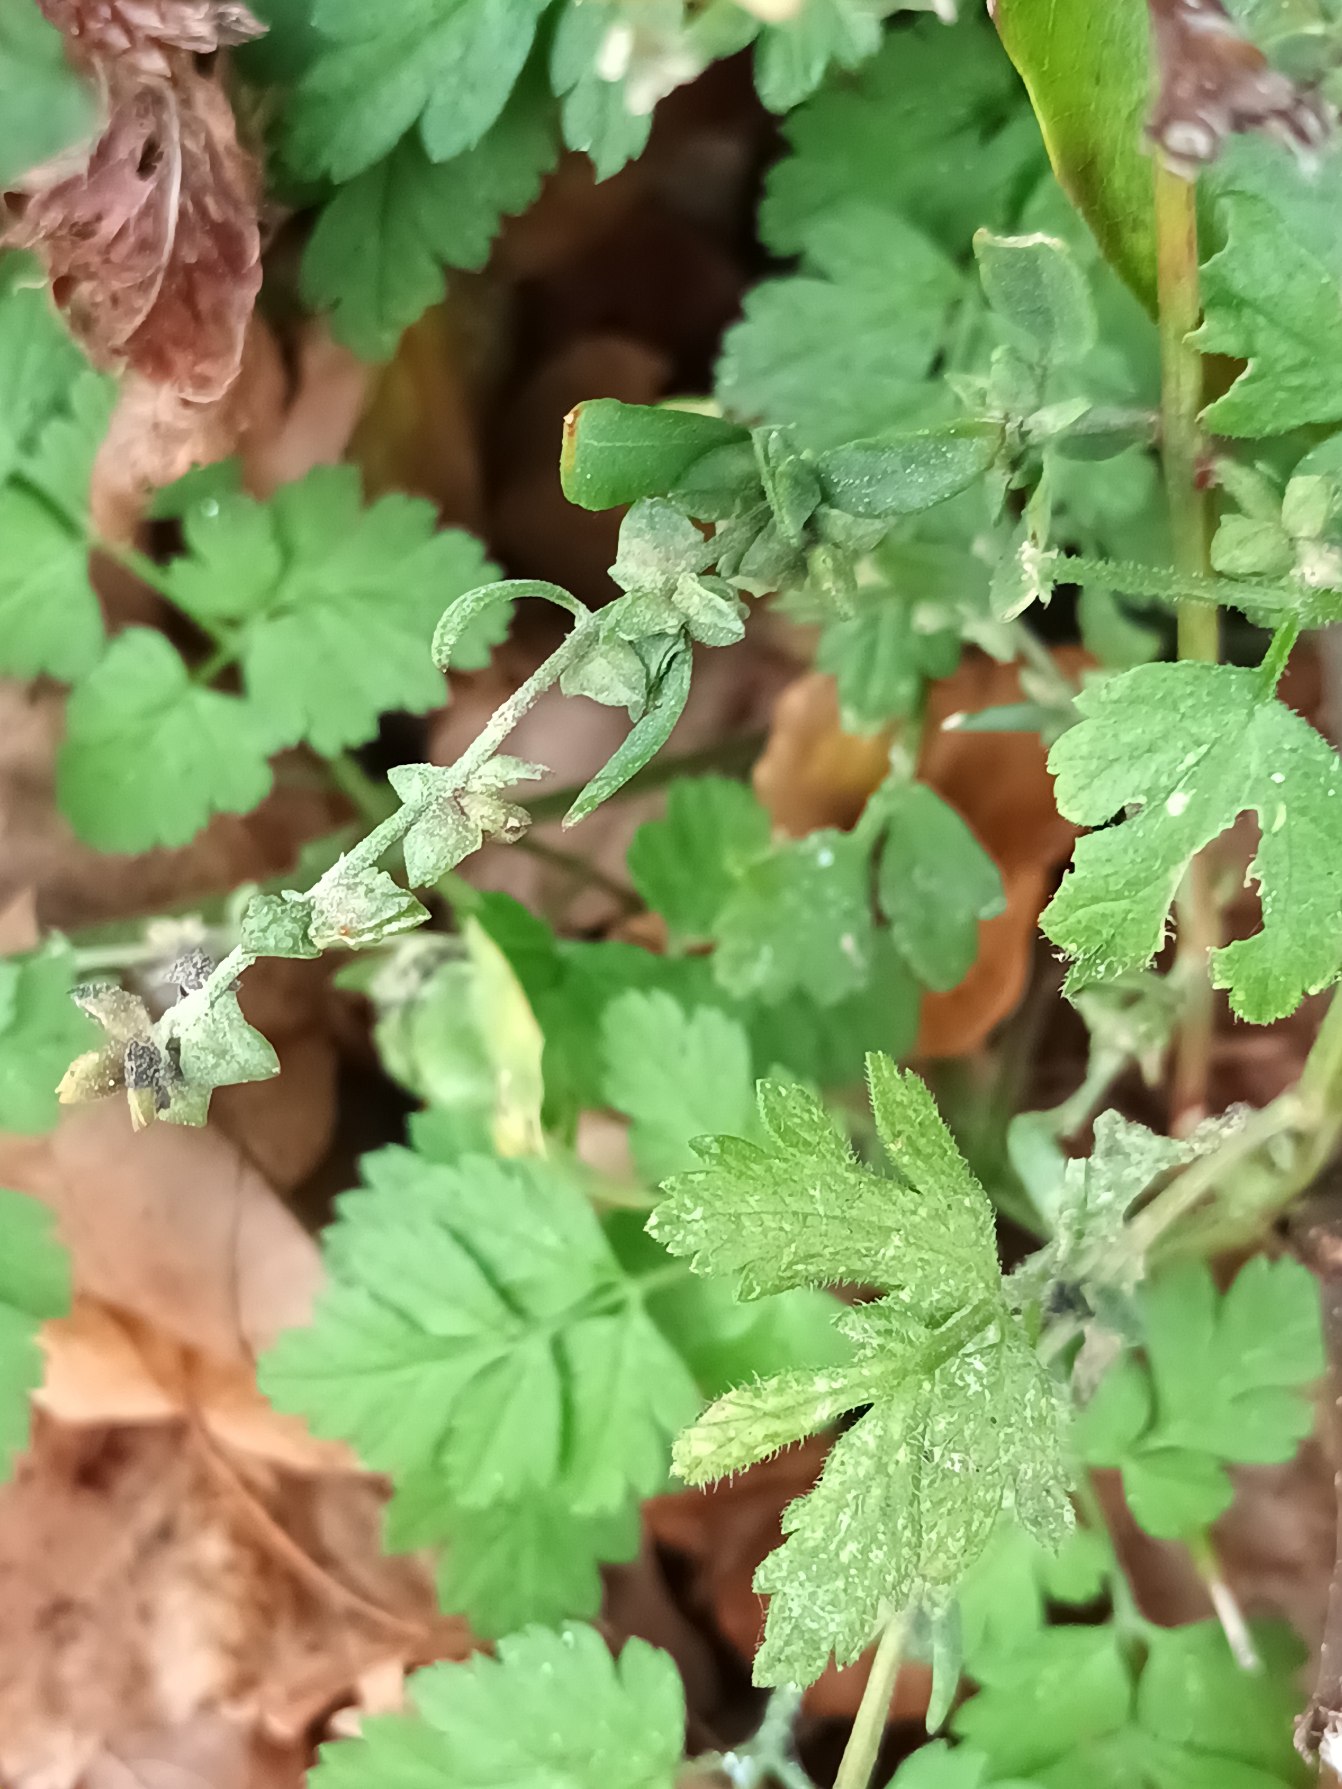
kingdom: Plantae
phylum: Tracheophyta
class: Magnoliopsida
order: Caryophyllales
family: Amaranthaceae
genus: Atriplex
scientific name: Atriplex patula
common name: Svine-mælde
